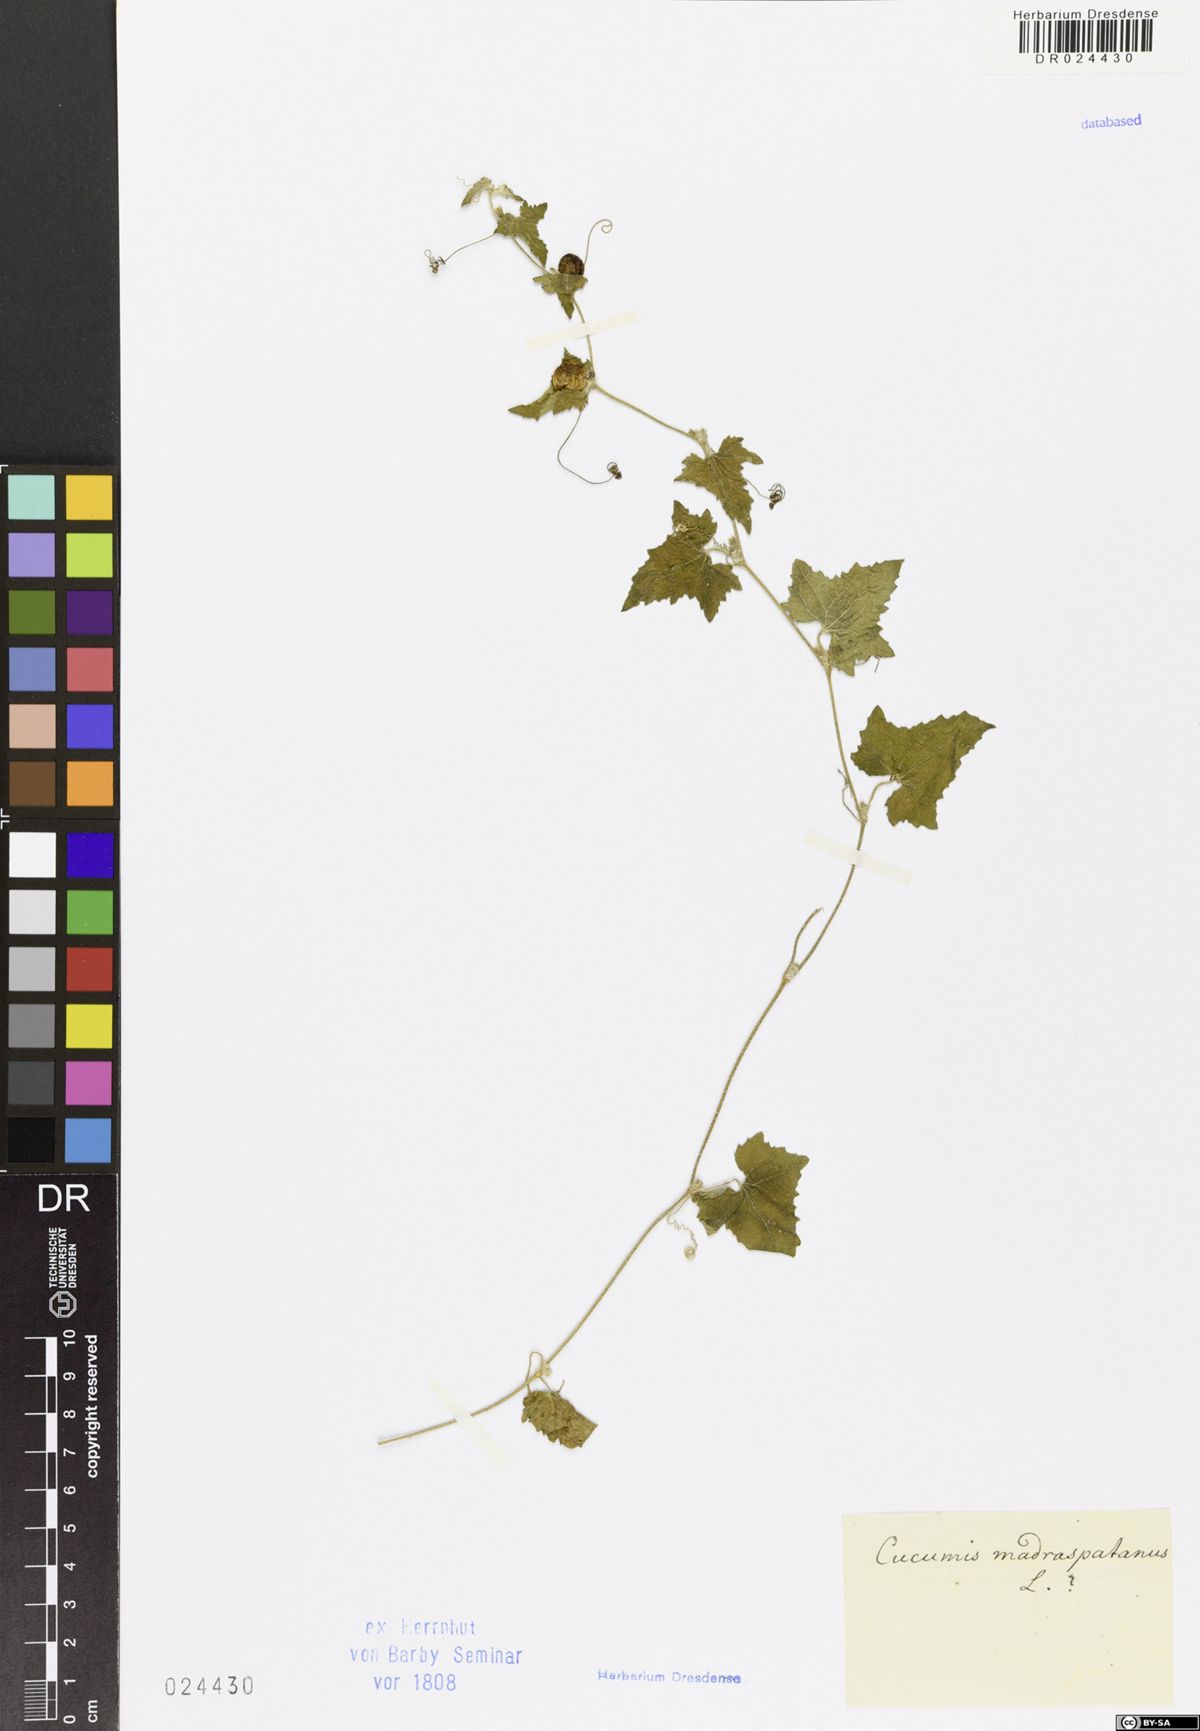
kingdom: Plantae
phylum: Tracheophyta
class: Magnoliopsida
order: Cucurbitales
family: Cucurbitaceae
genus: Cucumis
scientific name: Cucumis maderaspatanus
